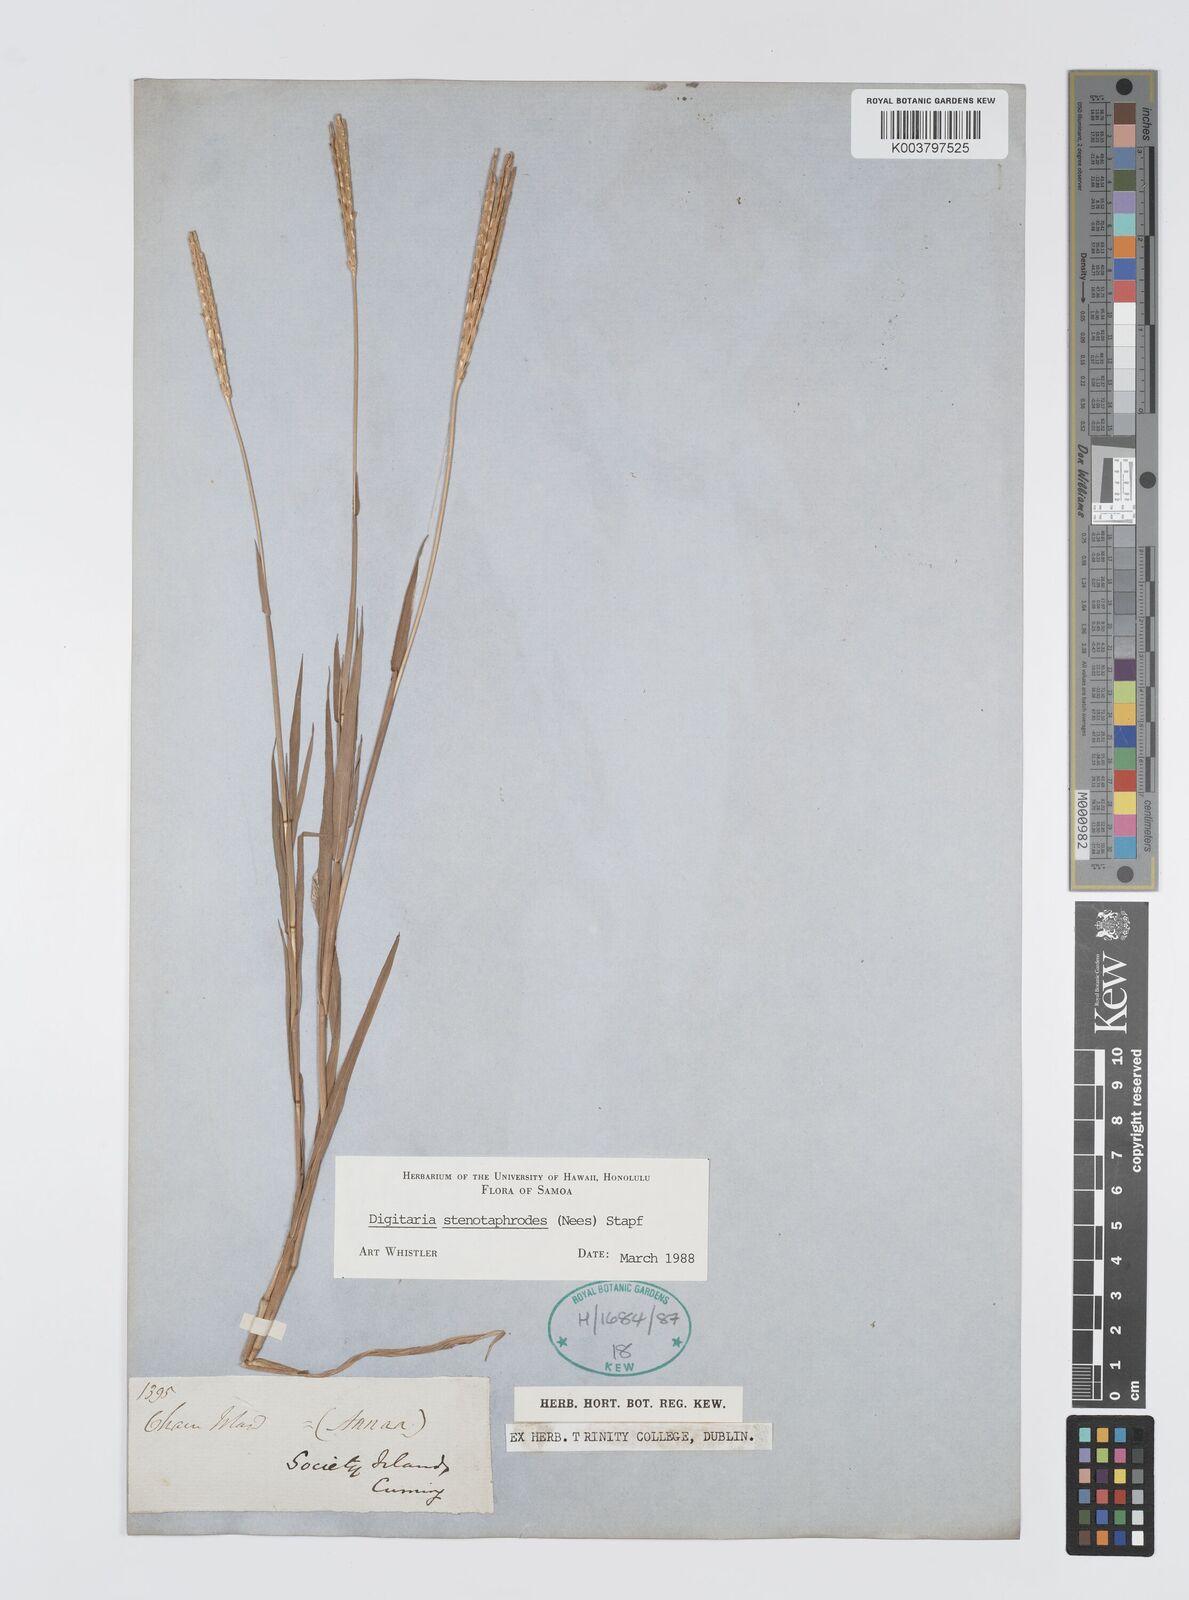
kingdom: Plantae
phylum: Tracheophyta
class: Liliopsida
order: Poales
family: Poaceae
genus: Digitaria
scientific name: Digitaria stenotaphrodes
